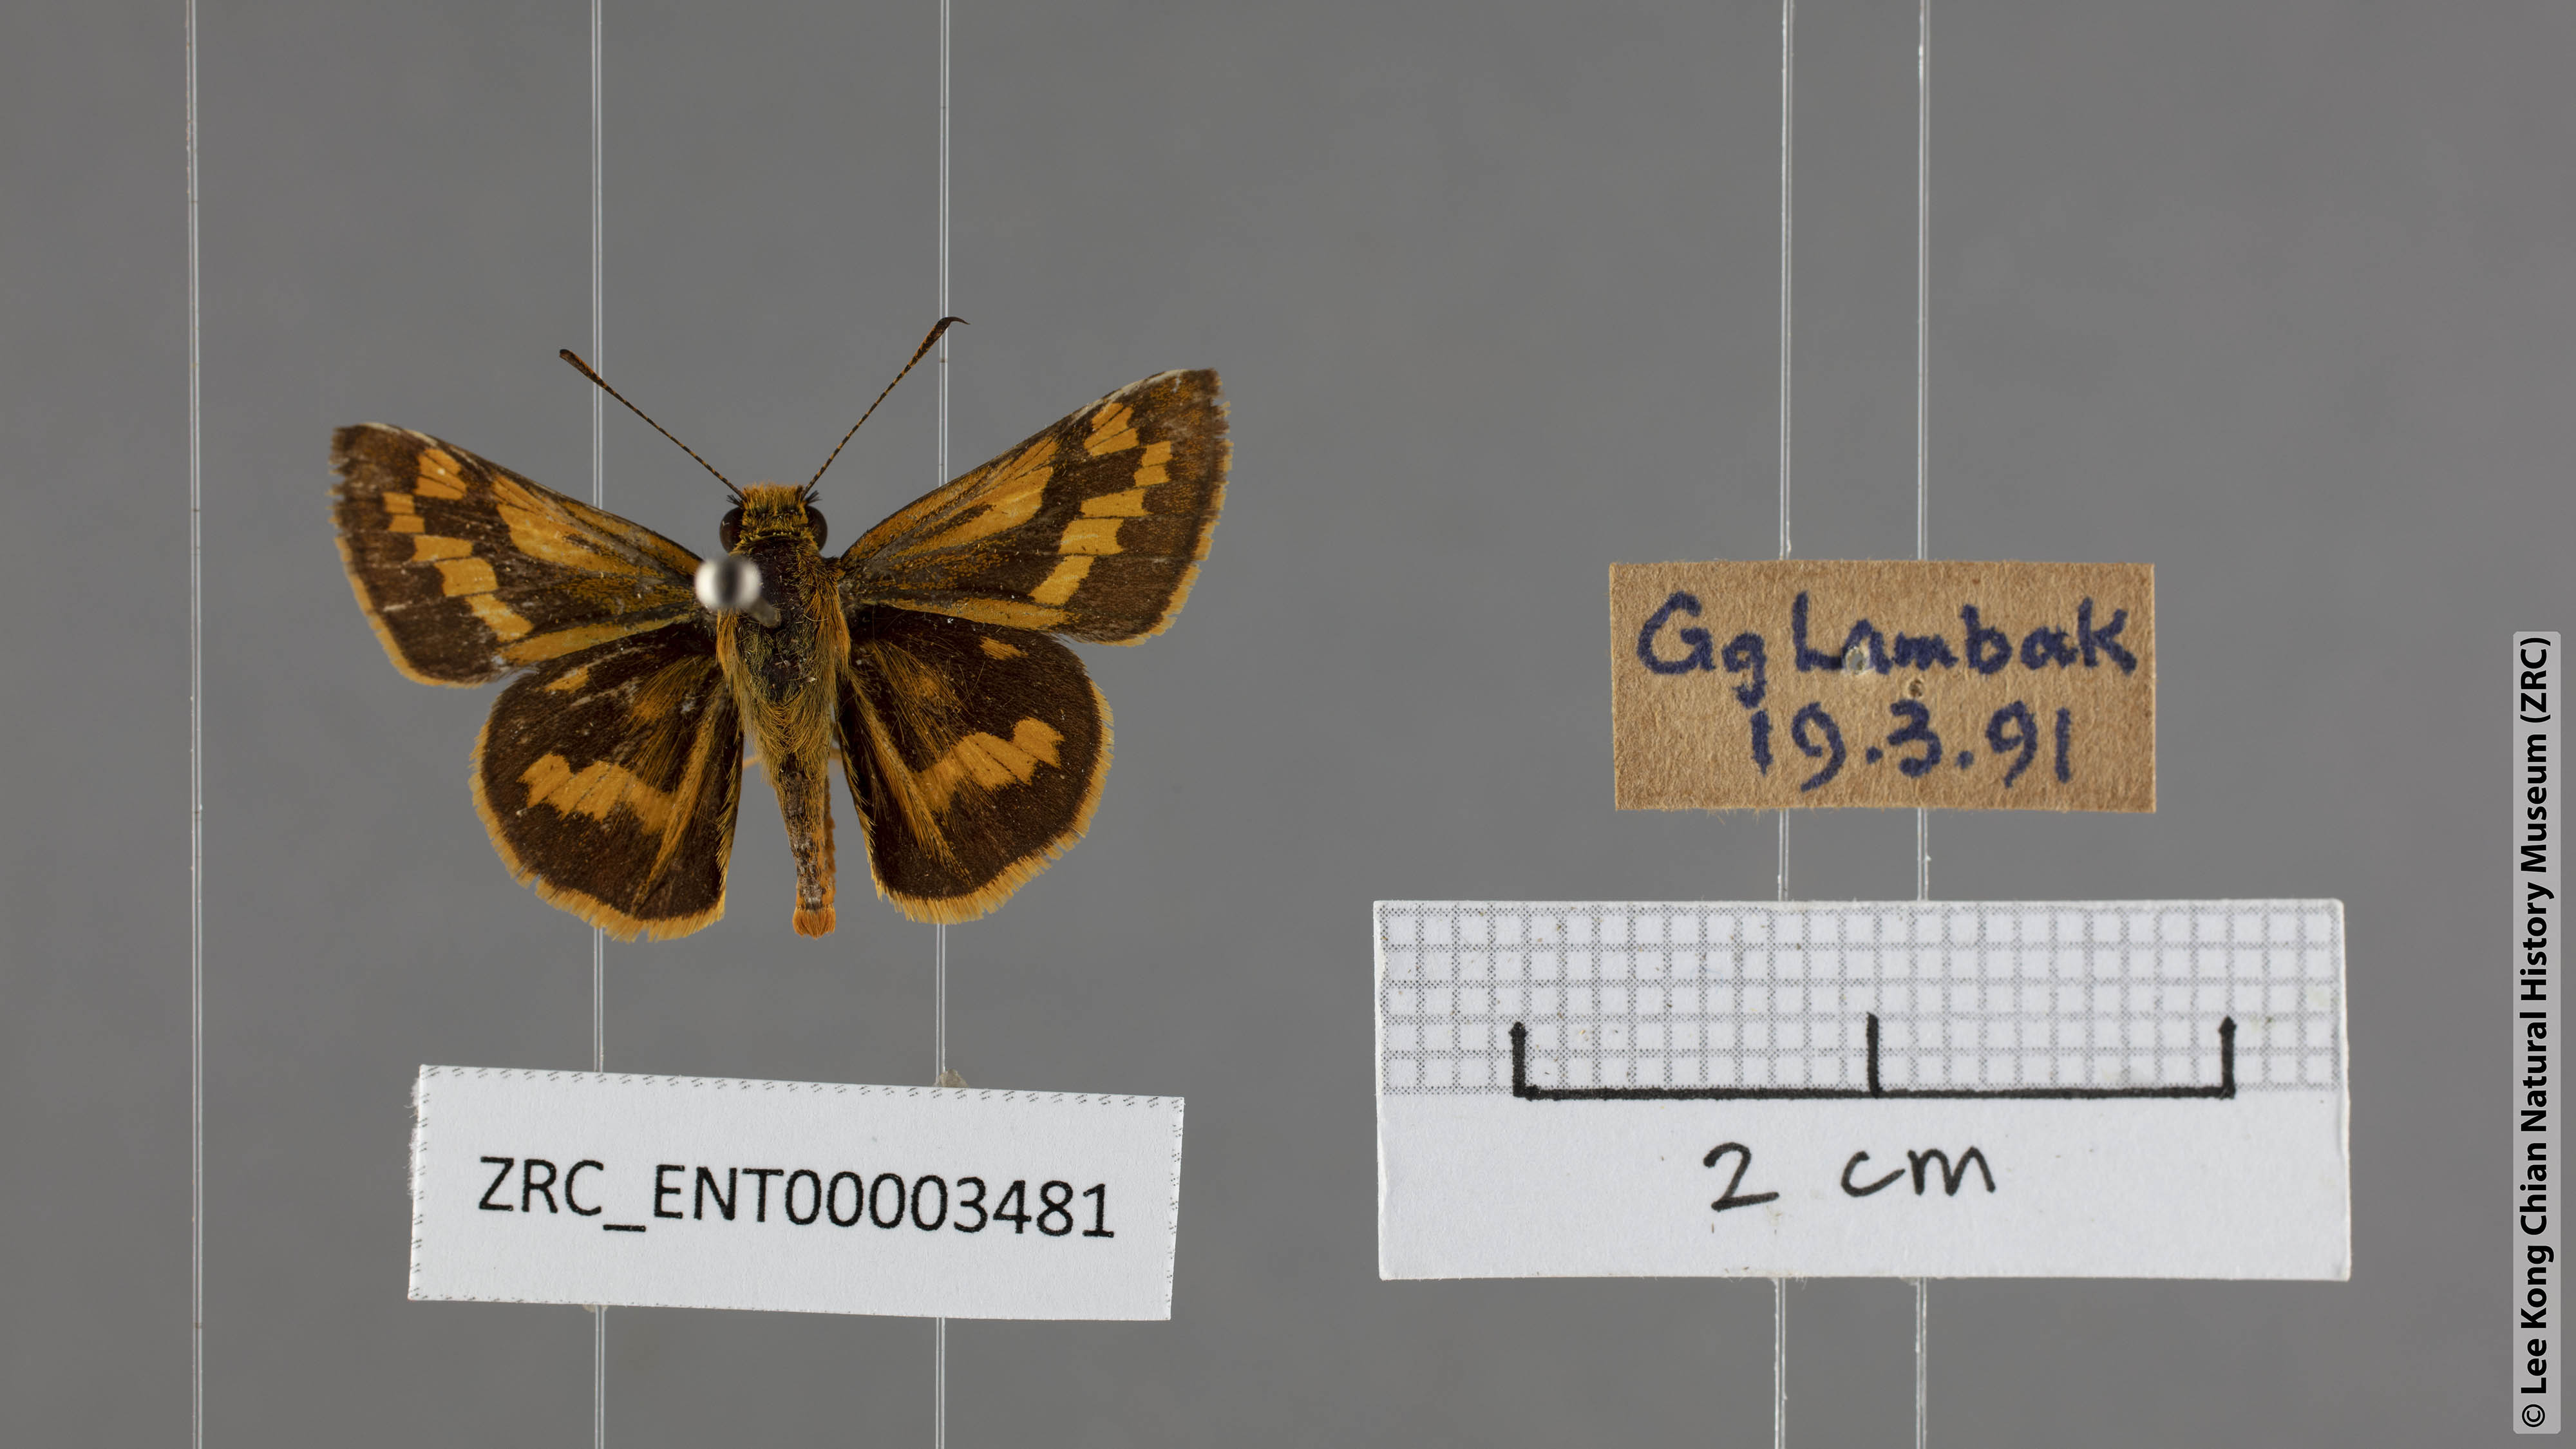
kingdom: Animalia
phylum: Arthropoda
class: Insecta
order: Lepidoptera
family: Hesperiidae
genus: Potanthus
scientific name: Potanthus omaha
